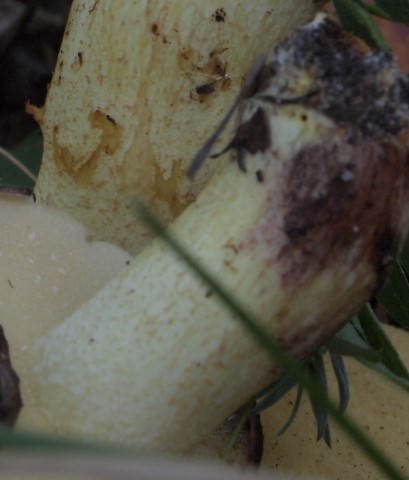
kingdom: Fungi
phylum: Basidiomycota
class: Agaricomycetes
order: Boletales
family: Suillaceae
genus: Suillus
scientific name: Suillus granulatus
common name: kornet slimrørhat
